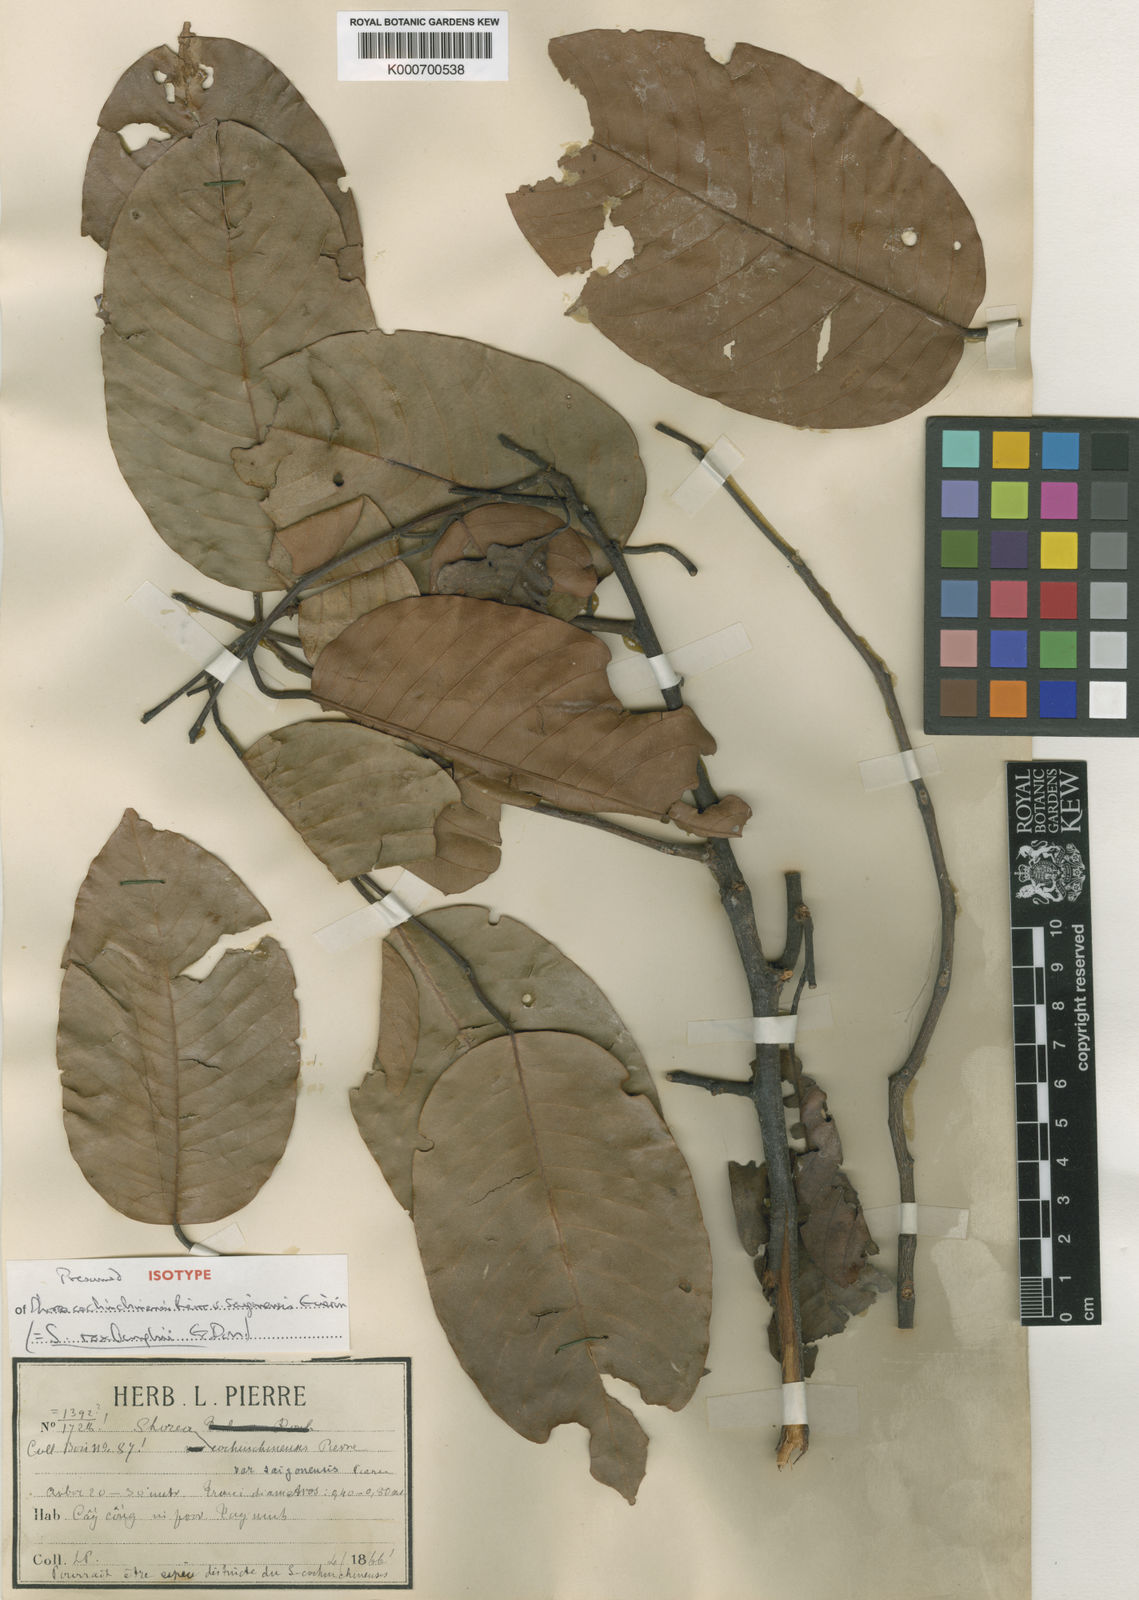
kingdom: Plantae
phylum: Tracheophyta
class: Magnoliopsida
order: Malvales
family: Dipterocarpaceae
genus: Anthoshorea
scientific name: Anthoshorea roxburghii
